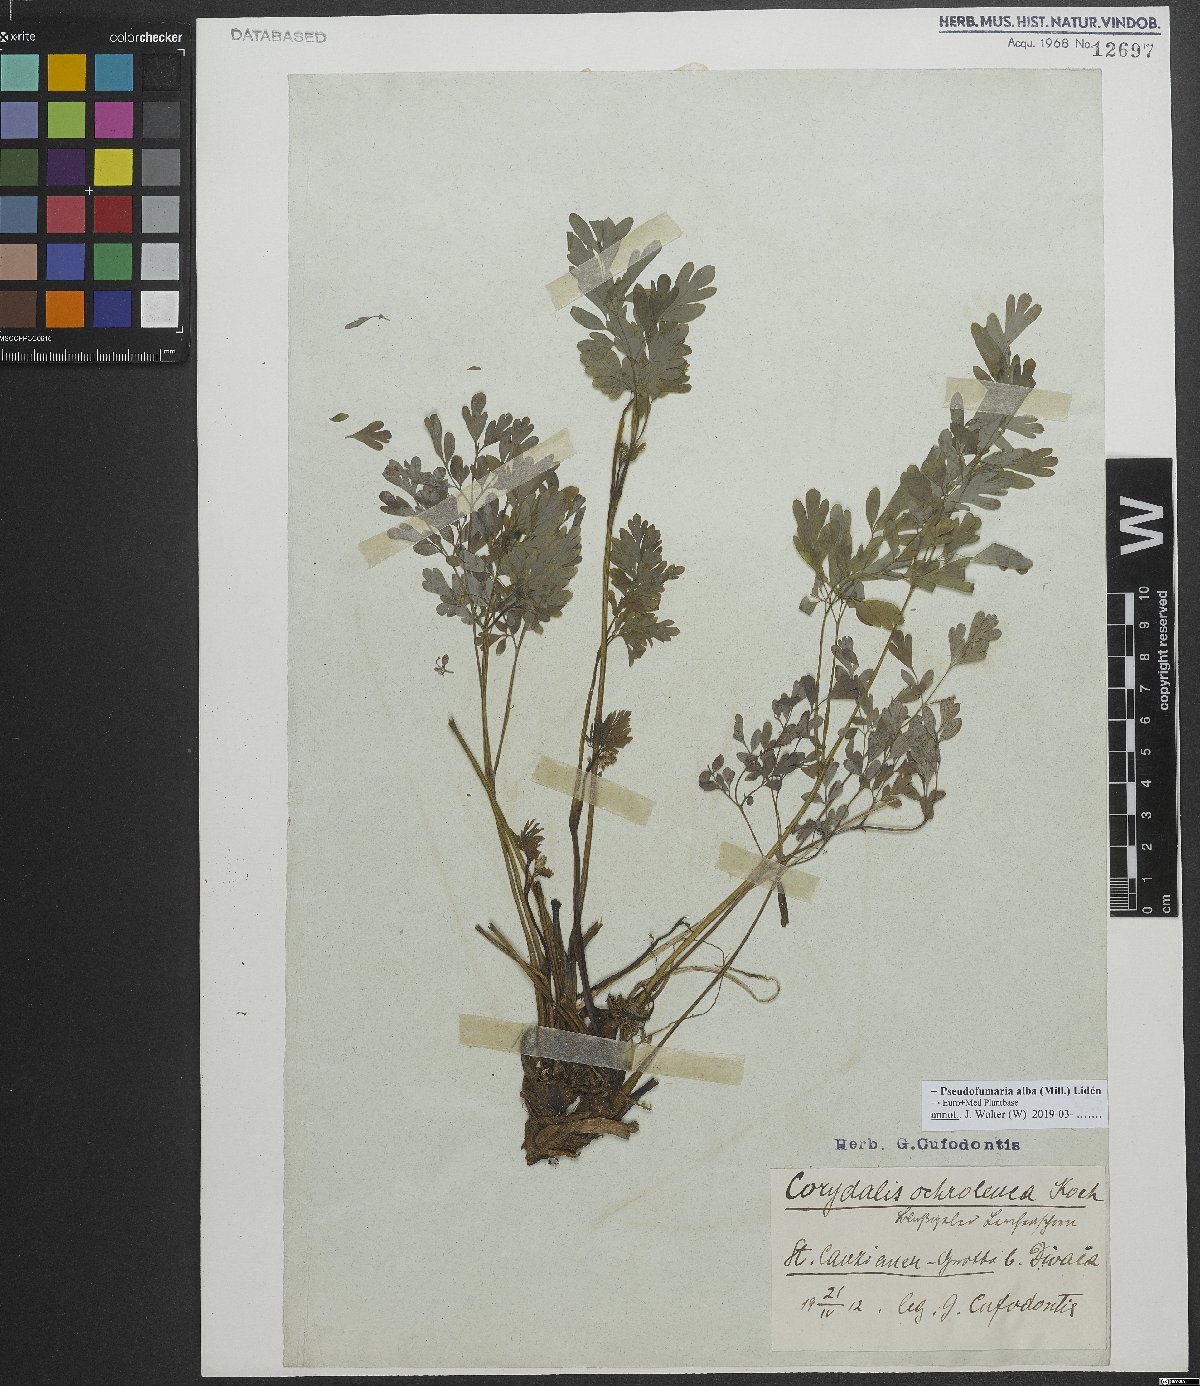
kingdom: Plantae
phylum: Tracheophyta
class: Magnoliopsida
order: Ranunculales
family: Papaveraceae
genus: Pseudofumaria
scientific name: Pseudofumaria alba
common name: Pale corydalis
